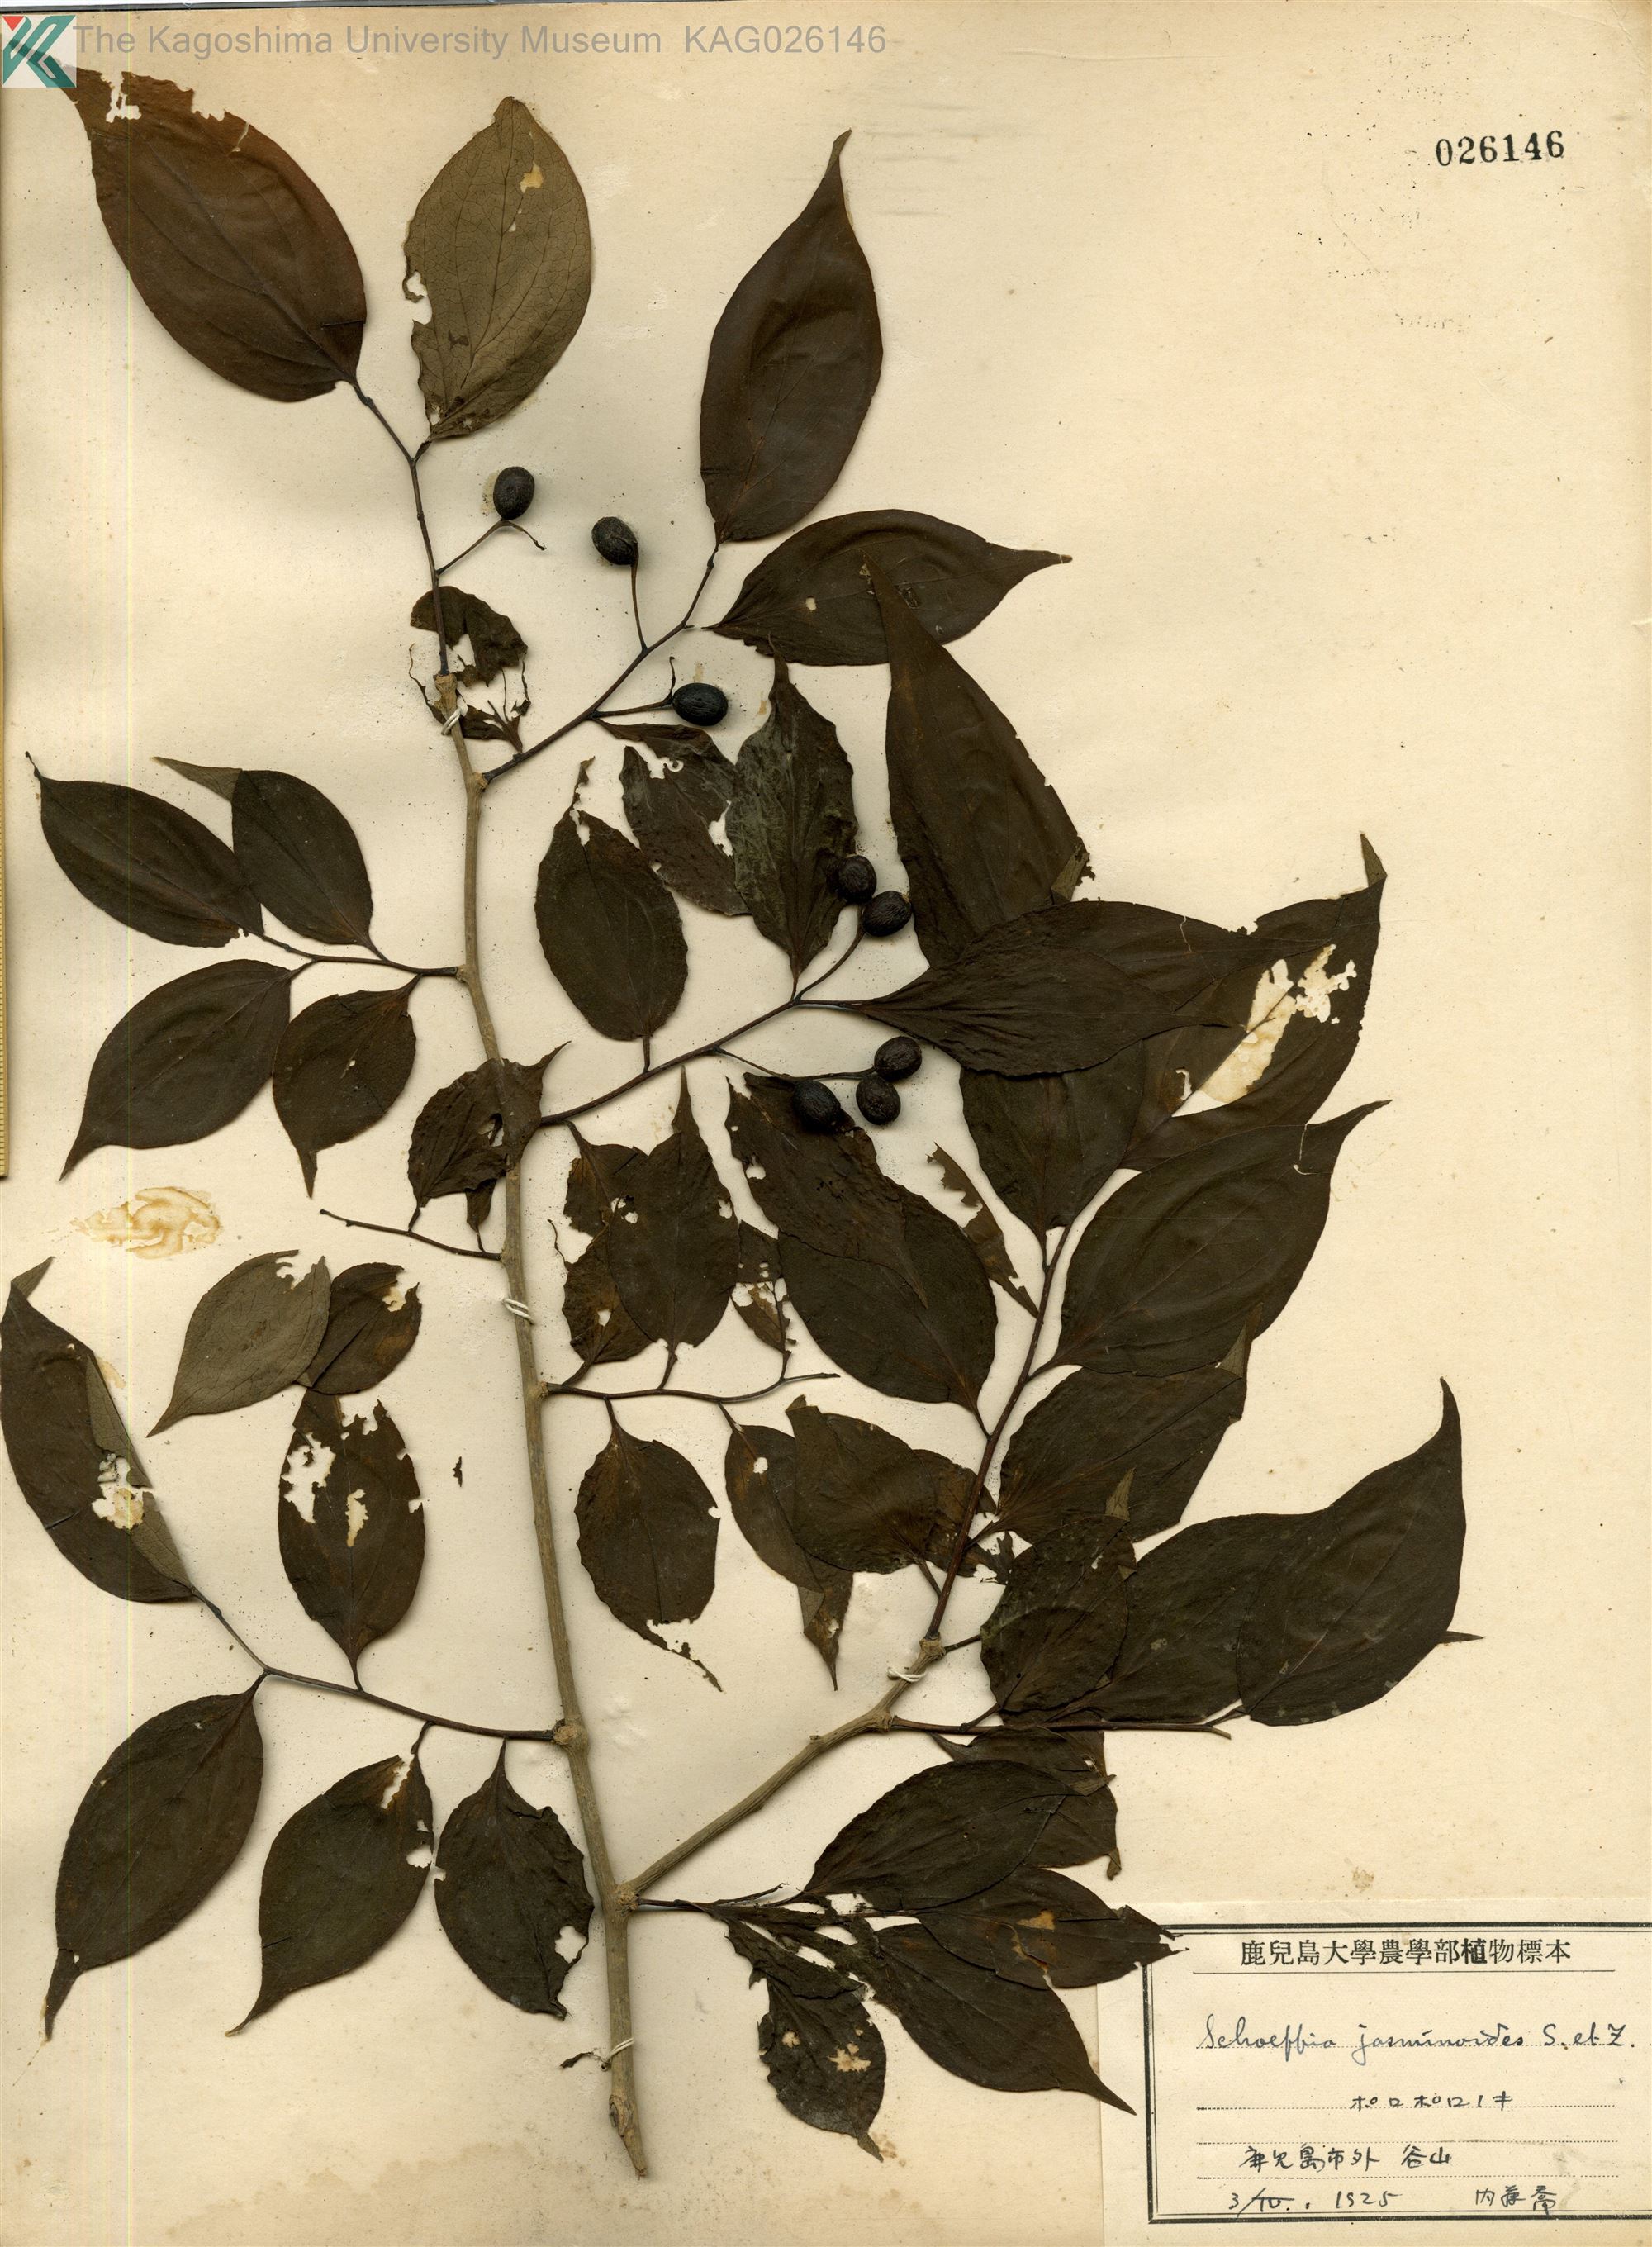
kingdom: Plantae
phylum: Tracheophyta
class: Magnoliopsida
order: Santalales
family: Schoepfiaceae
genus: Schoepfia
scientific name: Schoepfia jasminodora
